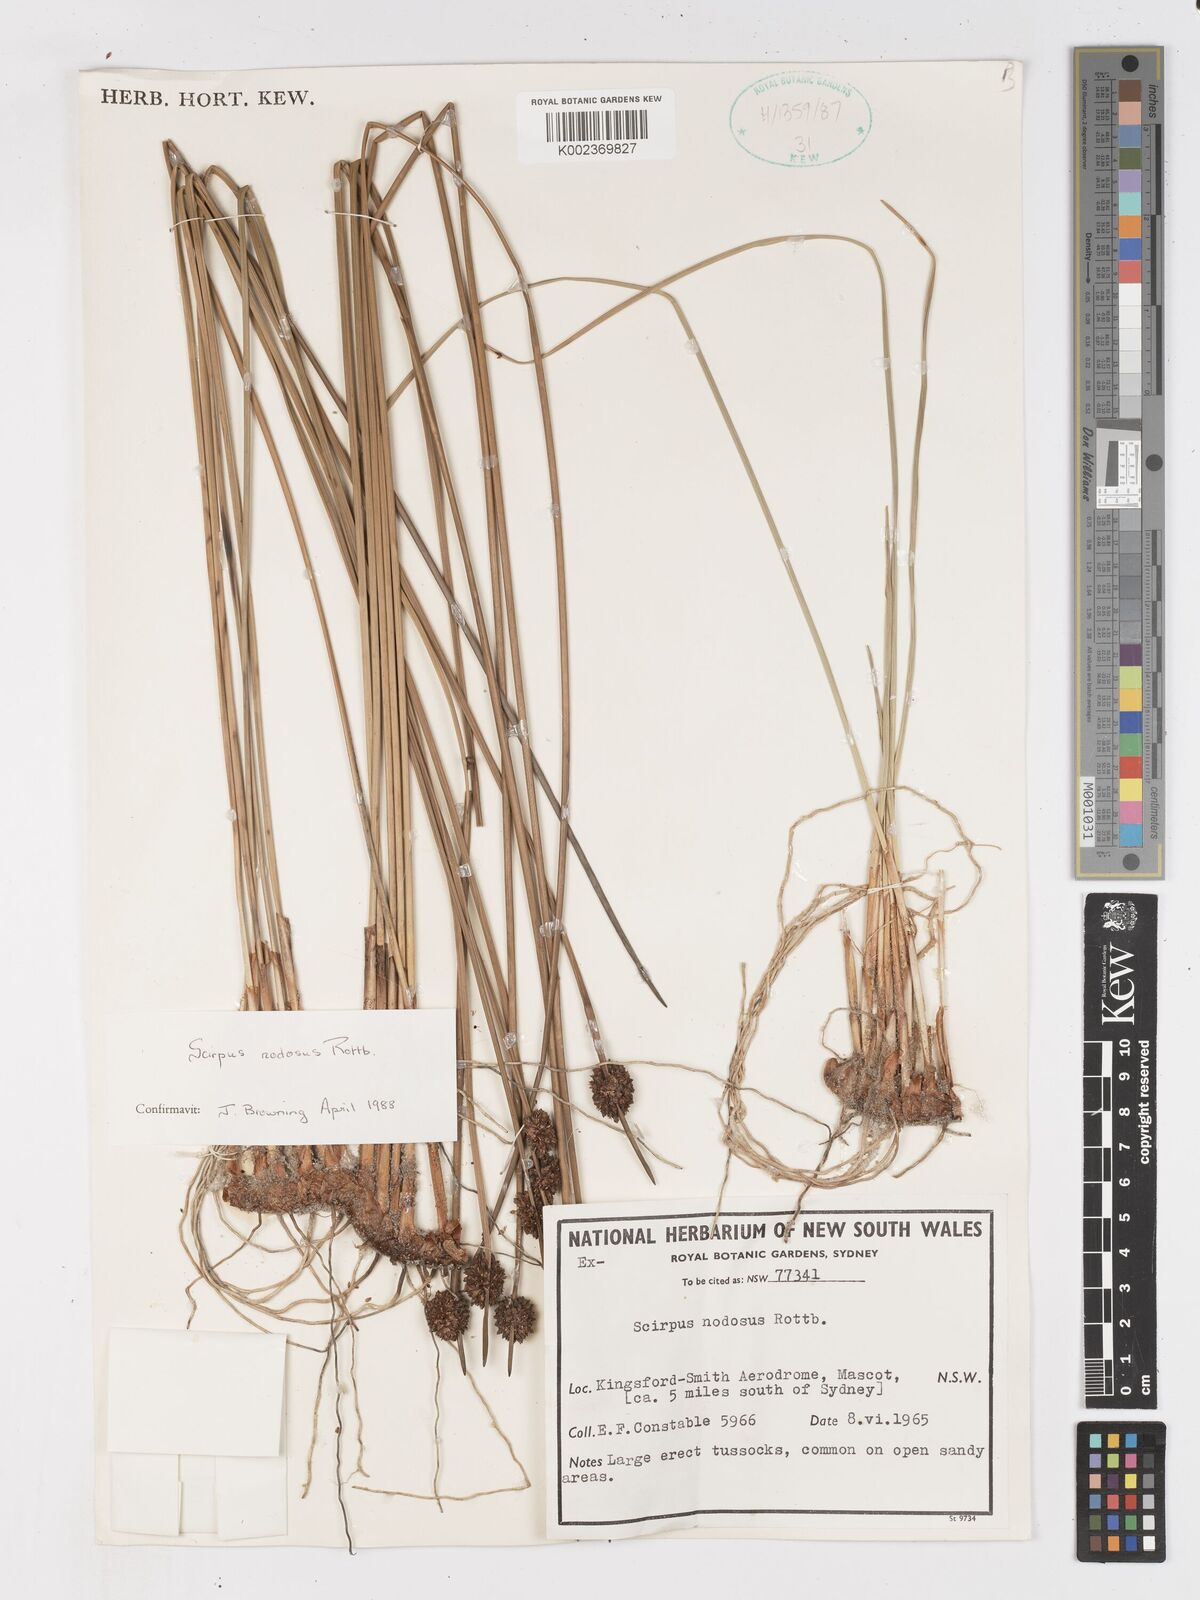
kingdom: Plantae
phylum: Tracheophyta
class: Liliopsida
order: Poales
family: Cyperaceae
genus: Ficinia
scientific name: Ficinia nodosa
